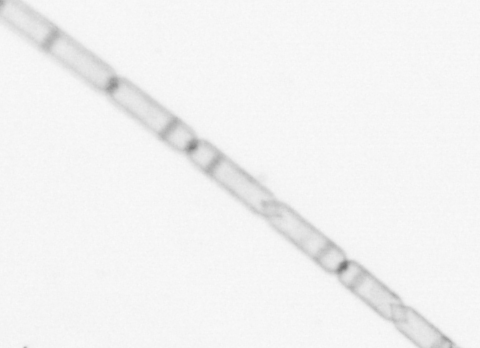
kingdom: Chromista
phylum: Ochrophyta
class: Bacillariophyceae
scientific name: Bacillariophyceae
